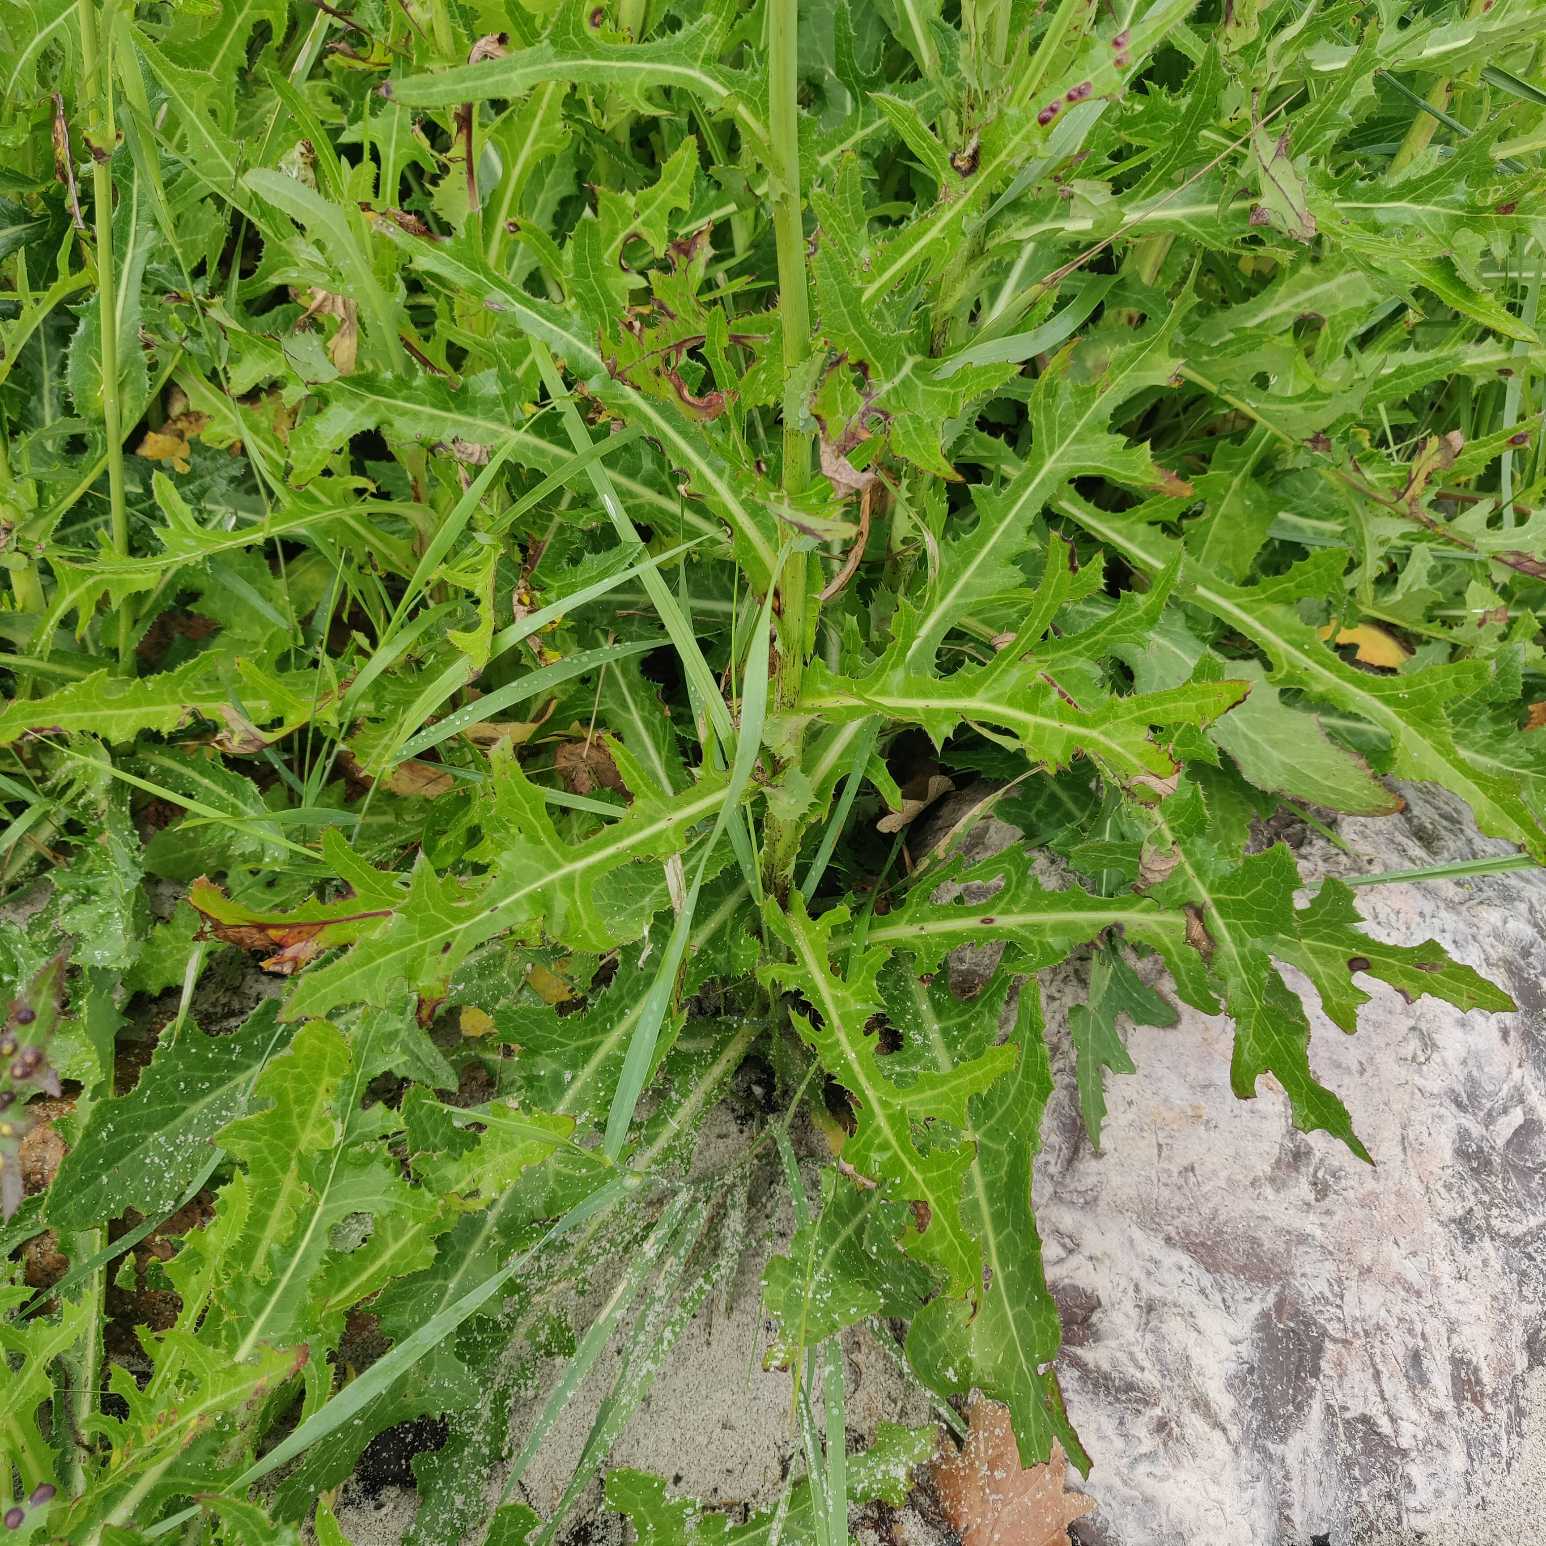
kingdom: Plantae
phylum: Tracheophyta
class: Magnoliopsida
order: Asterales
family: Asteraceae
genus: Sonchus
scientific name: Sonchus arvensis
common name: Ager-svinemælk
